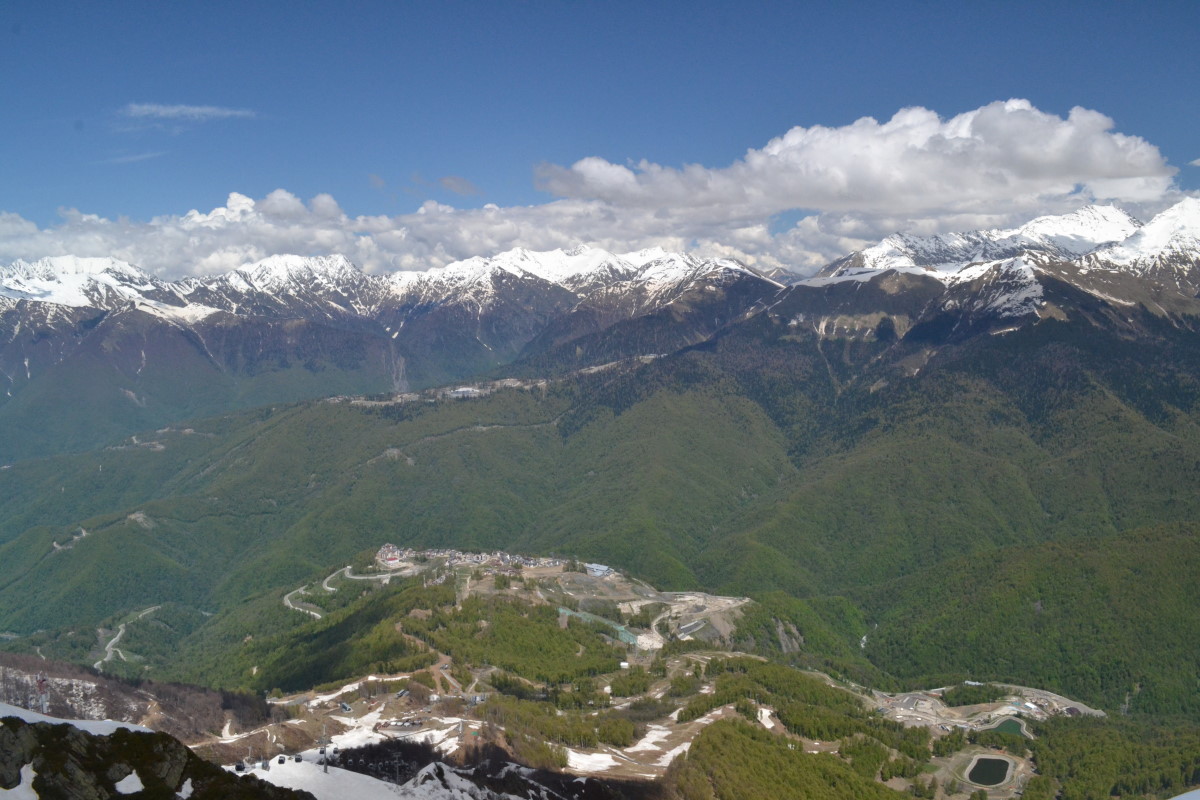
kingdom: Plantae
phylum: Tracheophyta
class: Magnoliopsida
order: Fagales
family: Fagaceae
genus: Fagus
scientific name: Fagus
